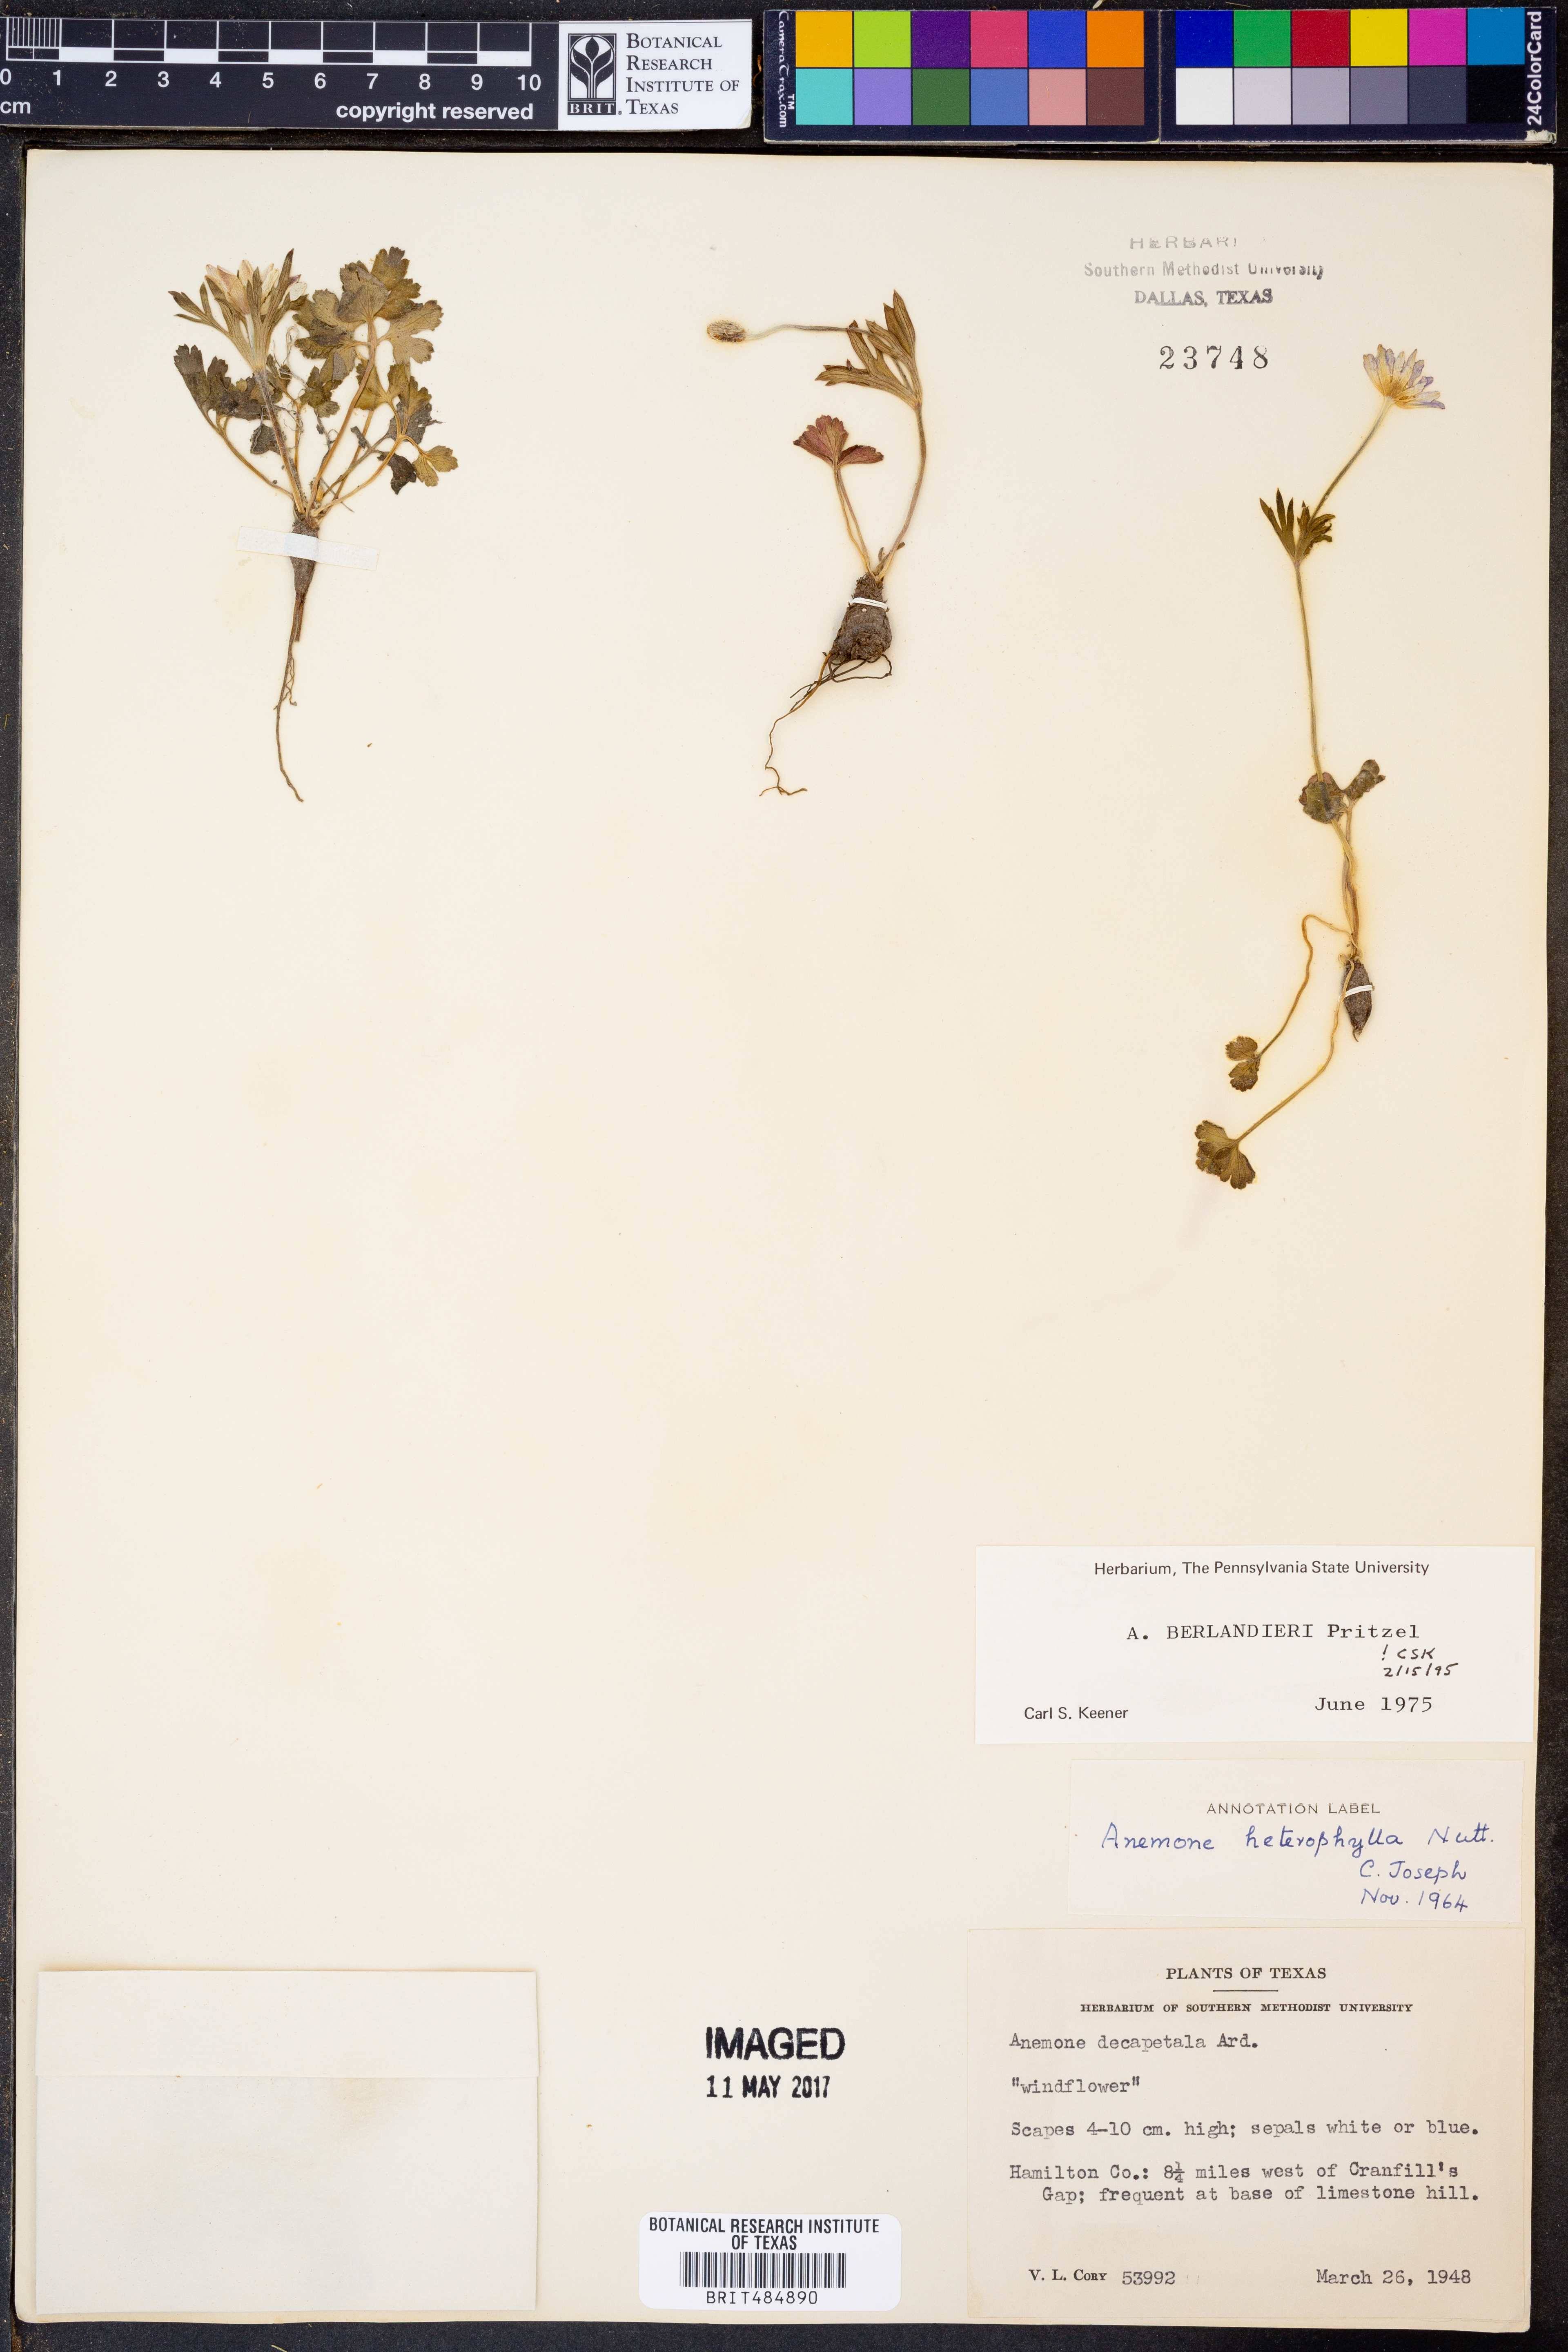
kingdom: Plantae
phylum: Tracheophyta
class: Magnoliopsida
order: Ranunculales
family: Ranunculaceae
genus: Anemone
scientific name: Anemone berlandieri
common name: Ten-petal anemone
